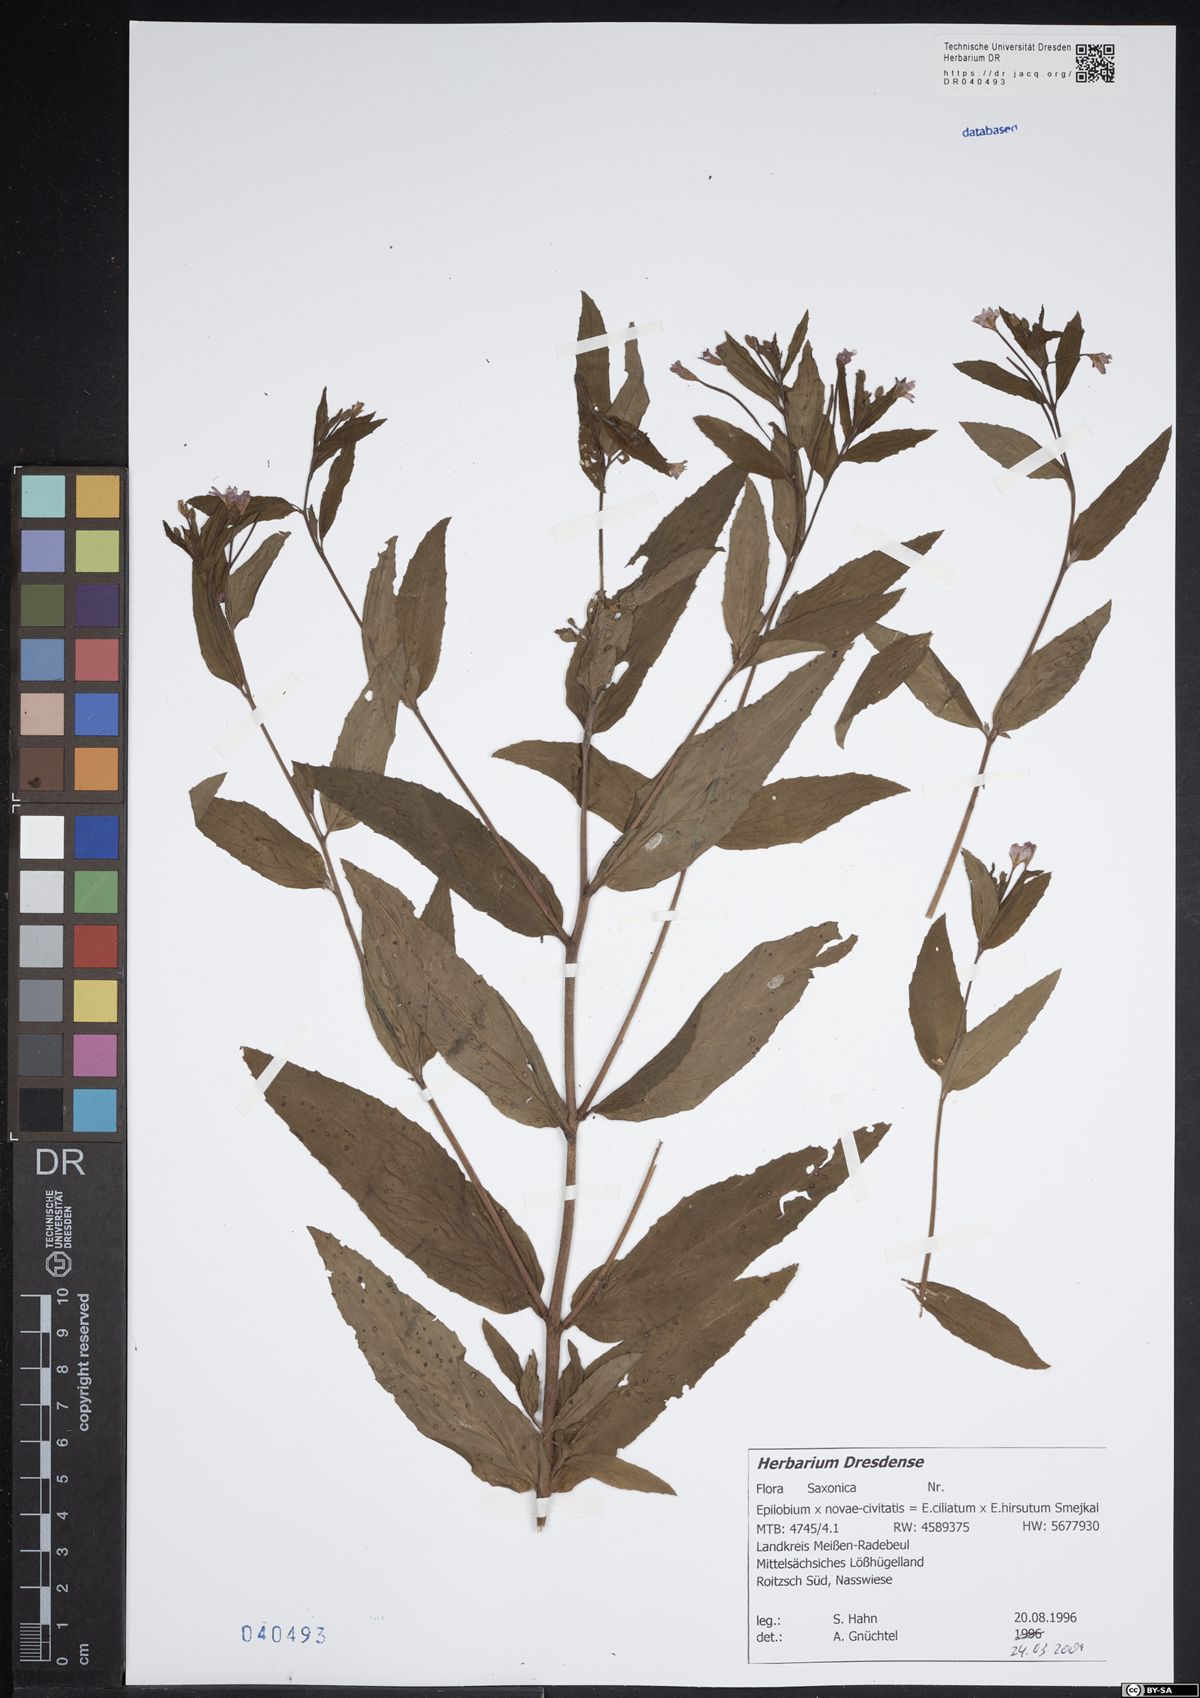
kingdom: Plantae
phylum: Tracheophyta
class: Magnoliopsida
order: Myrtales
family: Onagraceae
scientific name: Onagraceae
